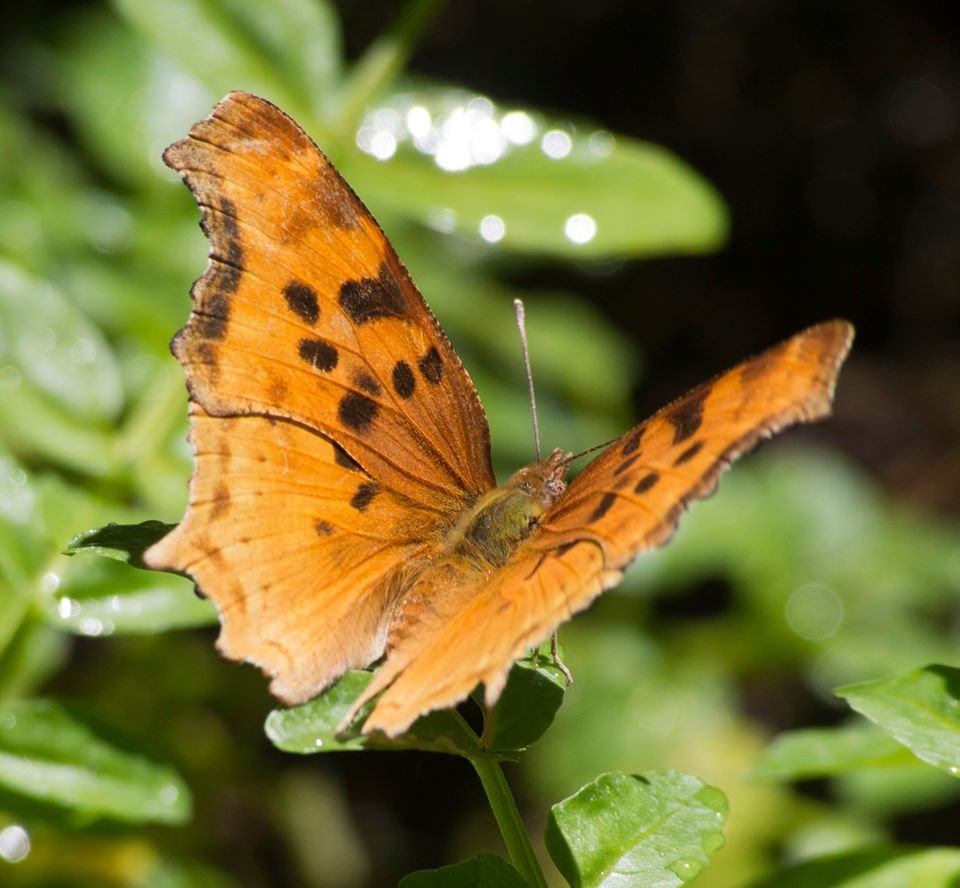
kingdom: Animalia
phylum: Arthropoda
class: Insecta
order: Lepidoptera
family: Nymphalidae
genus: Polygonia
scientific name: Polygonia satyrus
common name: Satyr Comma
